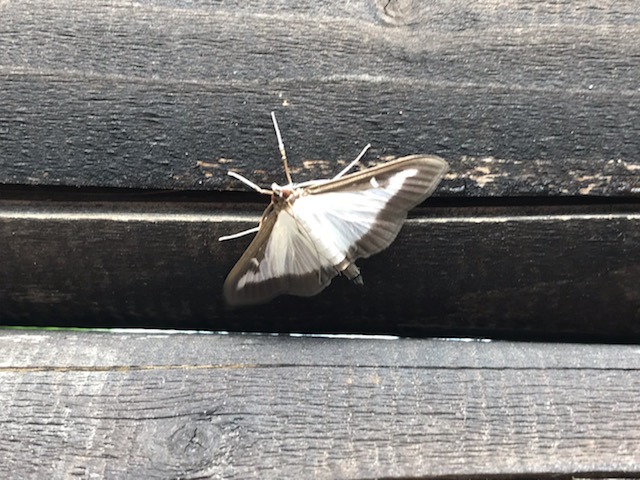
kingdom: Animalia
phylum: Arthropoda
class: Insecta
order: Lepidoptera
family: Crambidae
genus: Cydalima
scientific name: Cydalima perspectalis
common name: Buksbomhalvmøl
